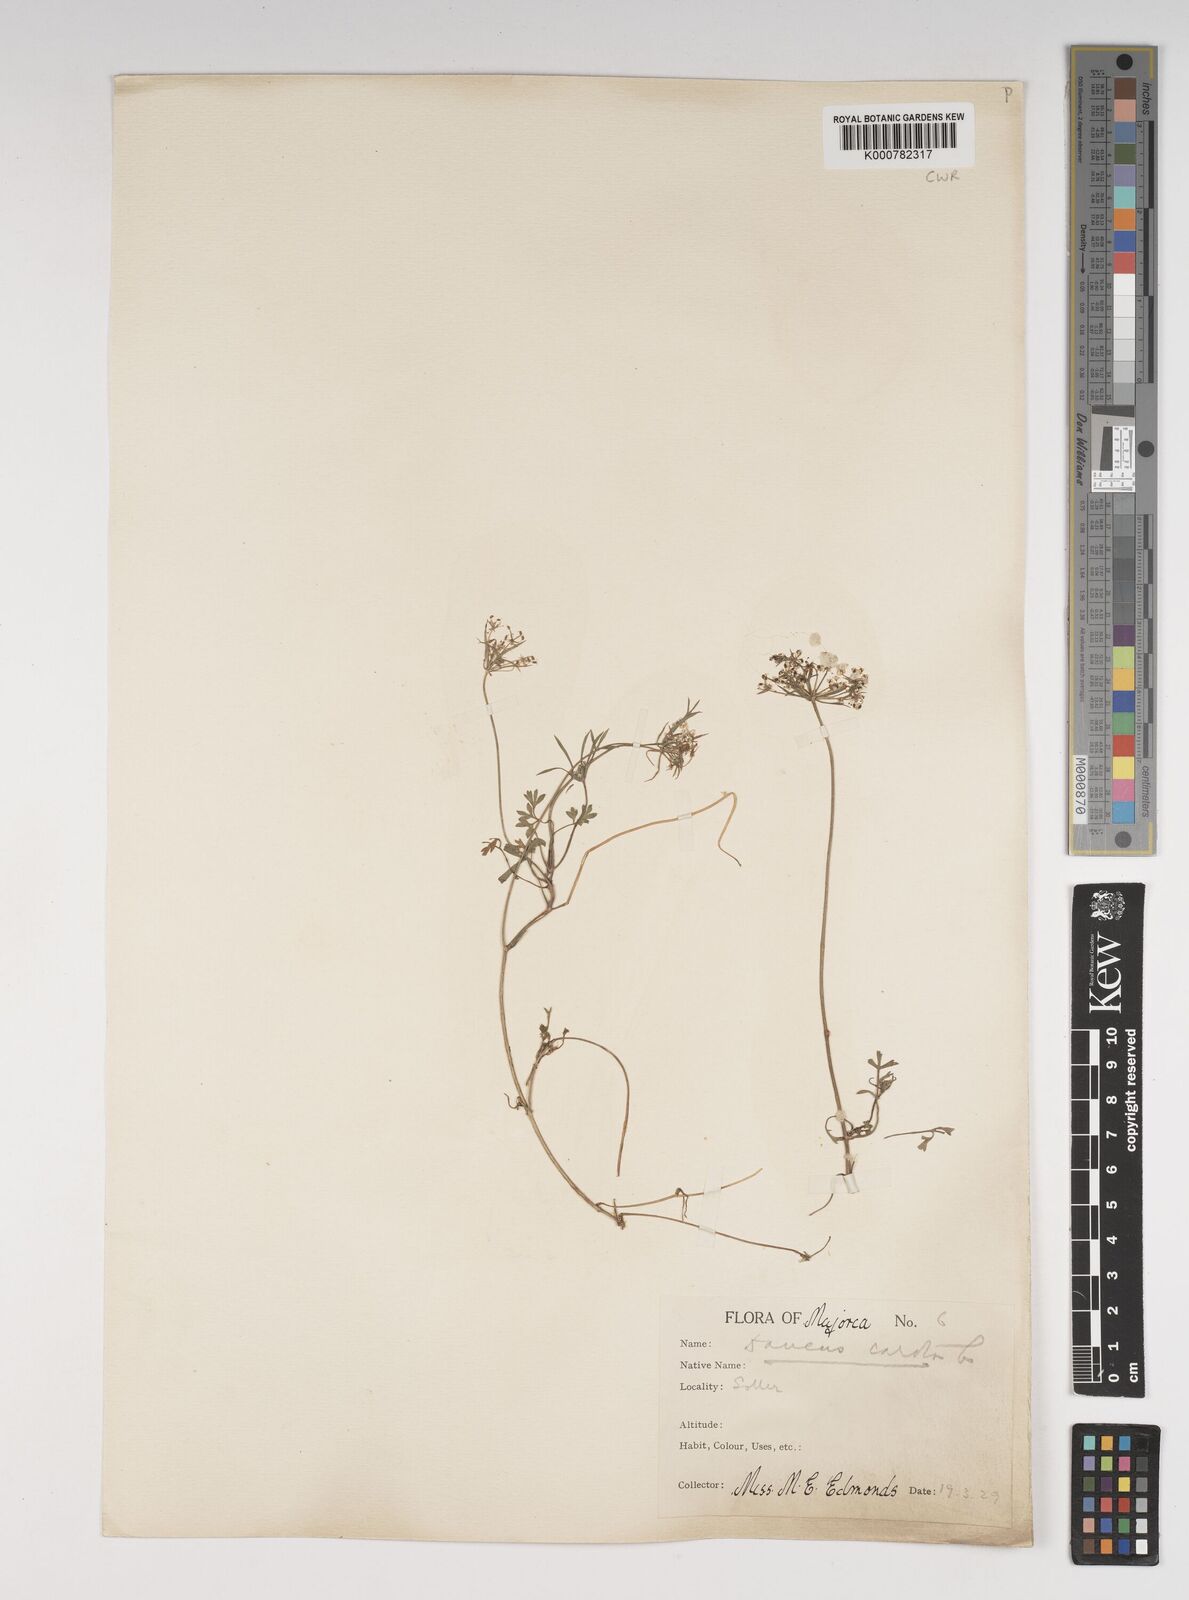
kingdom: Plantae
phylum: Tracheophyta
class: Magnoliopsida
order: Apiales
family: Apiaceae
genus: Daucus
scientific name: Daucus carota
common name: Wild carrot
